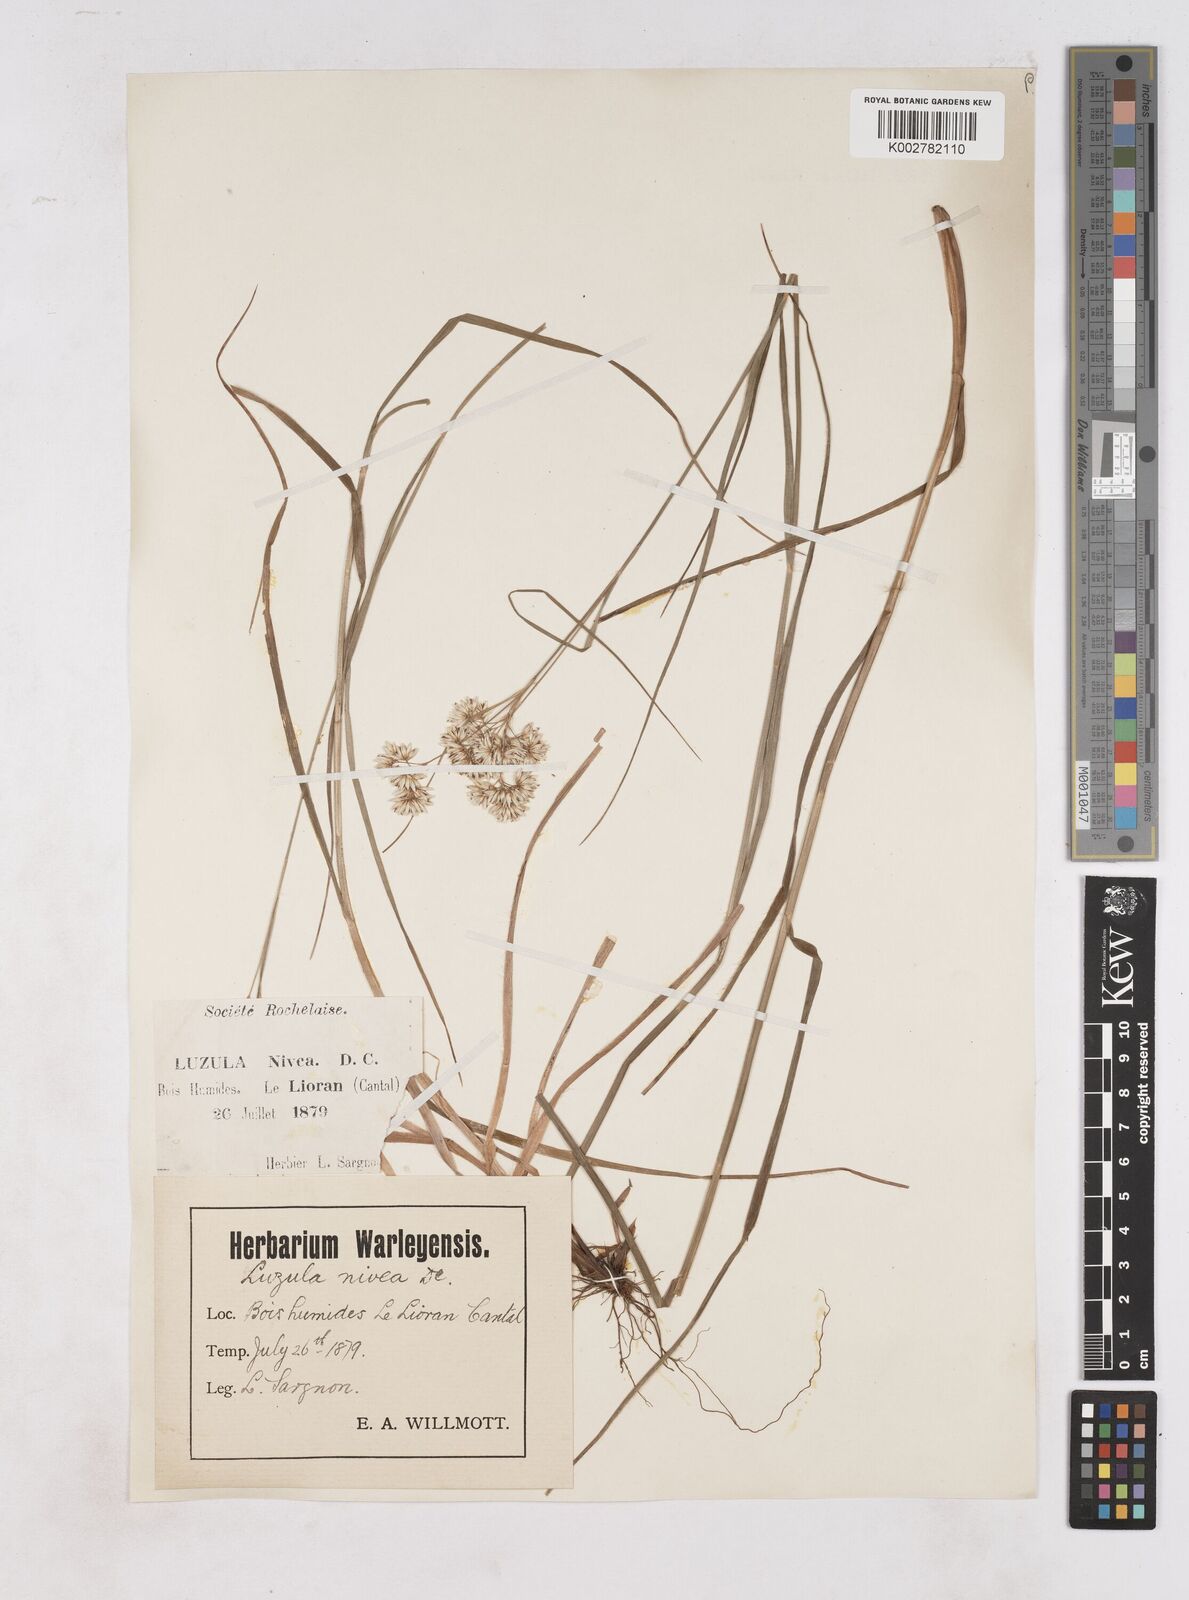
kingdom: Plantae
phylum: Tracheophyta
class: Liliopsida
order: Poales
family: Juncaceae
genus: Luzula
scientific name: Luzula nivea
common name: Snow-white wood-rush
